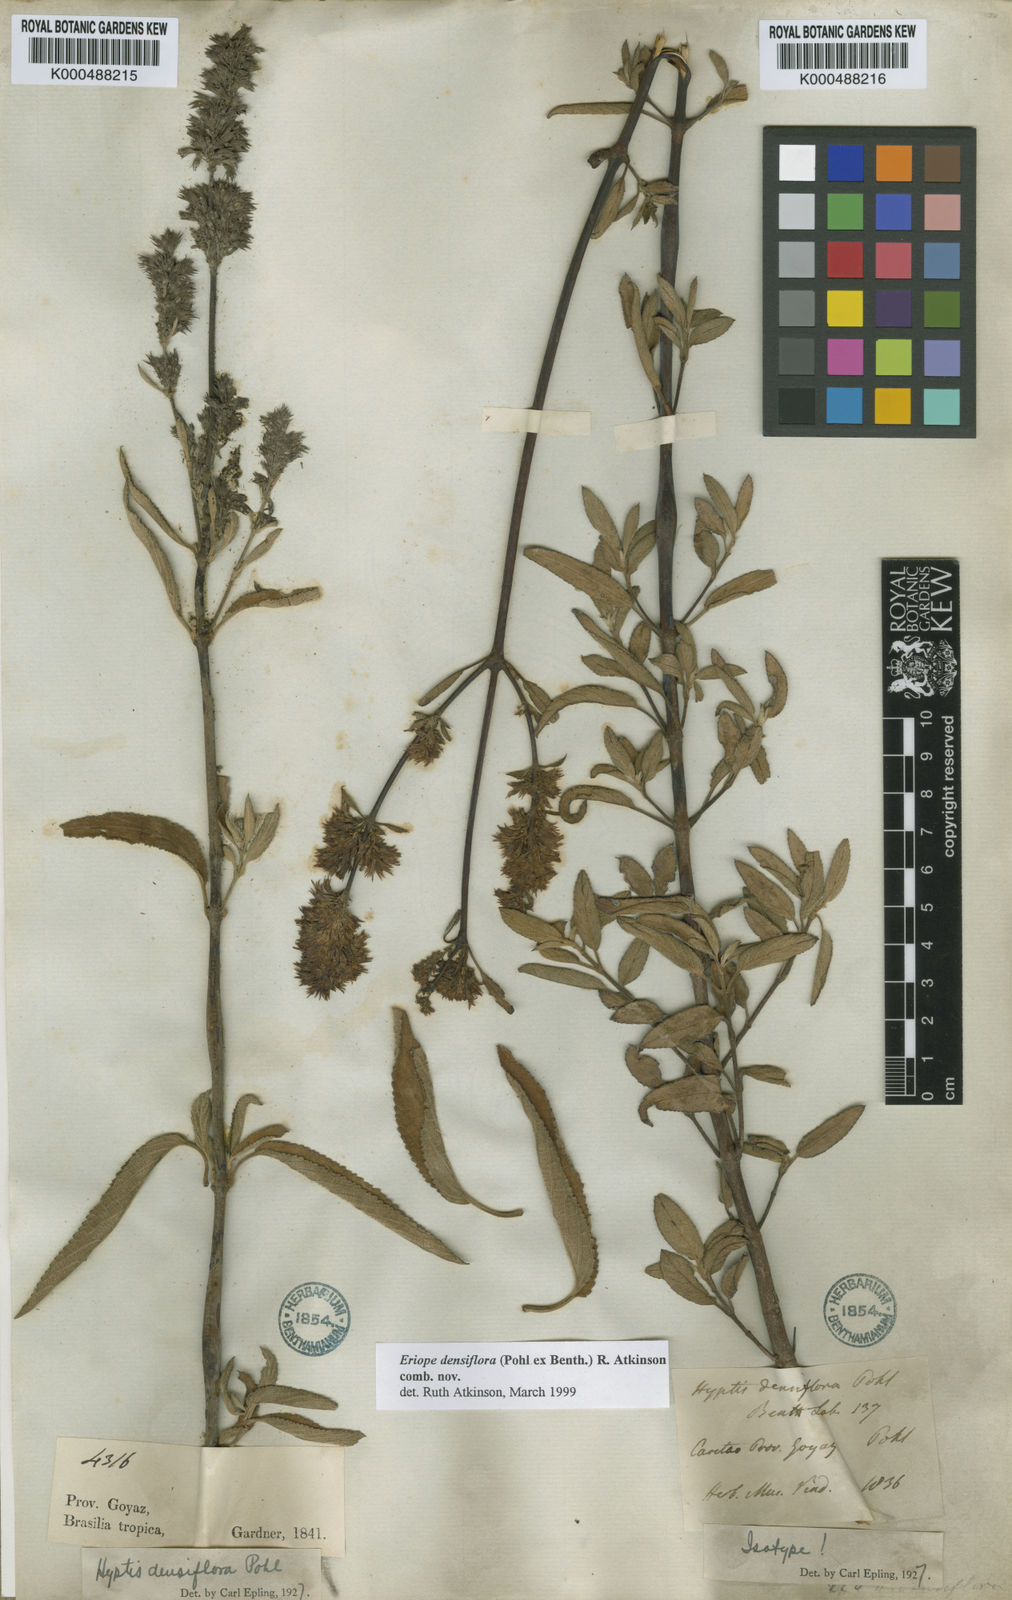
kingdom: Plantae
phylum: Tracheophyta
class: Magnoliopsida
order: Lamiales
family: Lamiaceae
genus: Hypenia
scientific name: Hypenia densiflora
